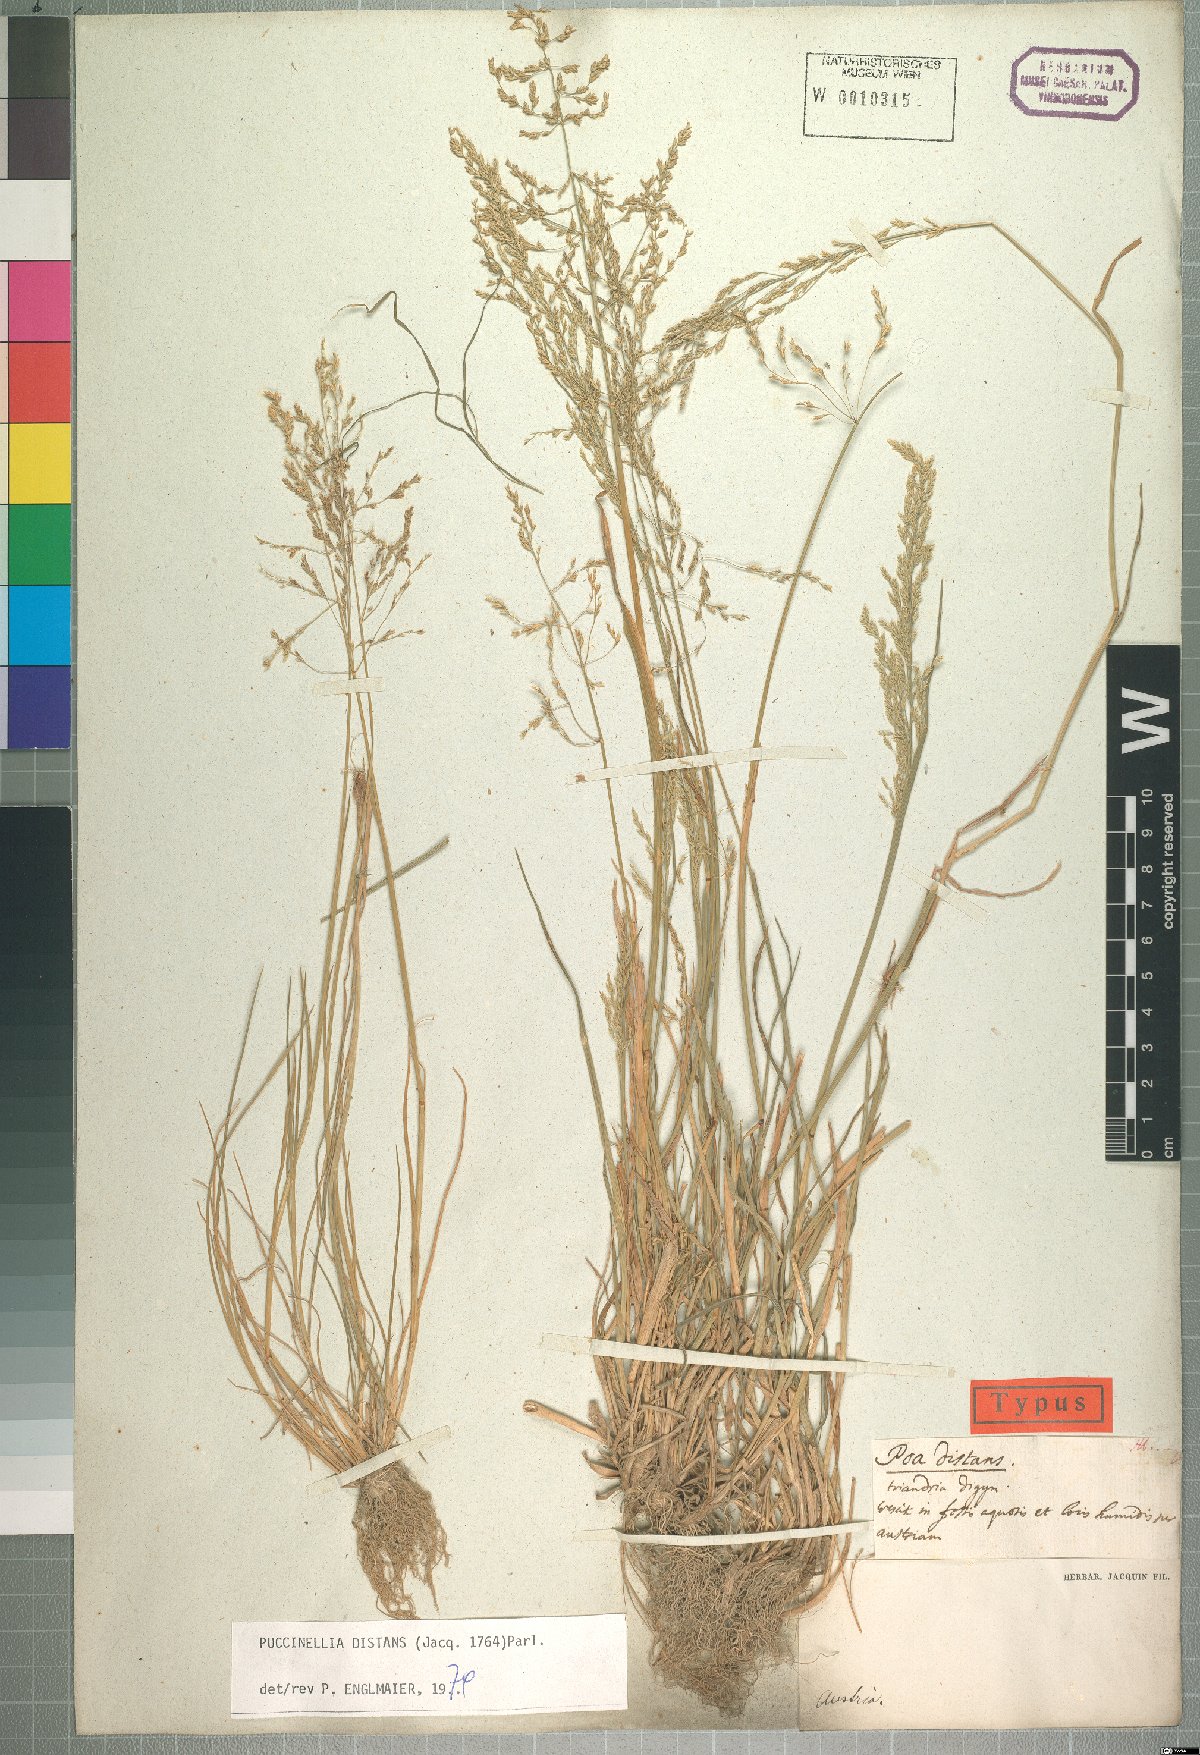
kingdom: Plantae
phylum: Tracheophyta
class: Liliopsida
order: Poales
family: Poaceae
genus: Puccinellia
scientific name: Puccinellia distans
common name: Weeping alkaligrass
